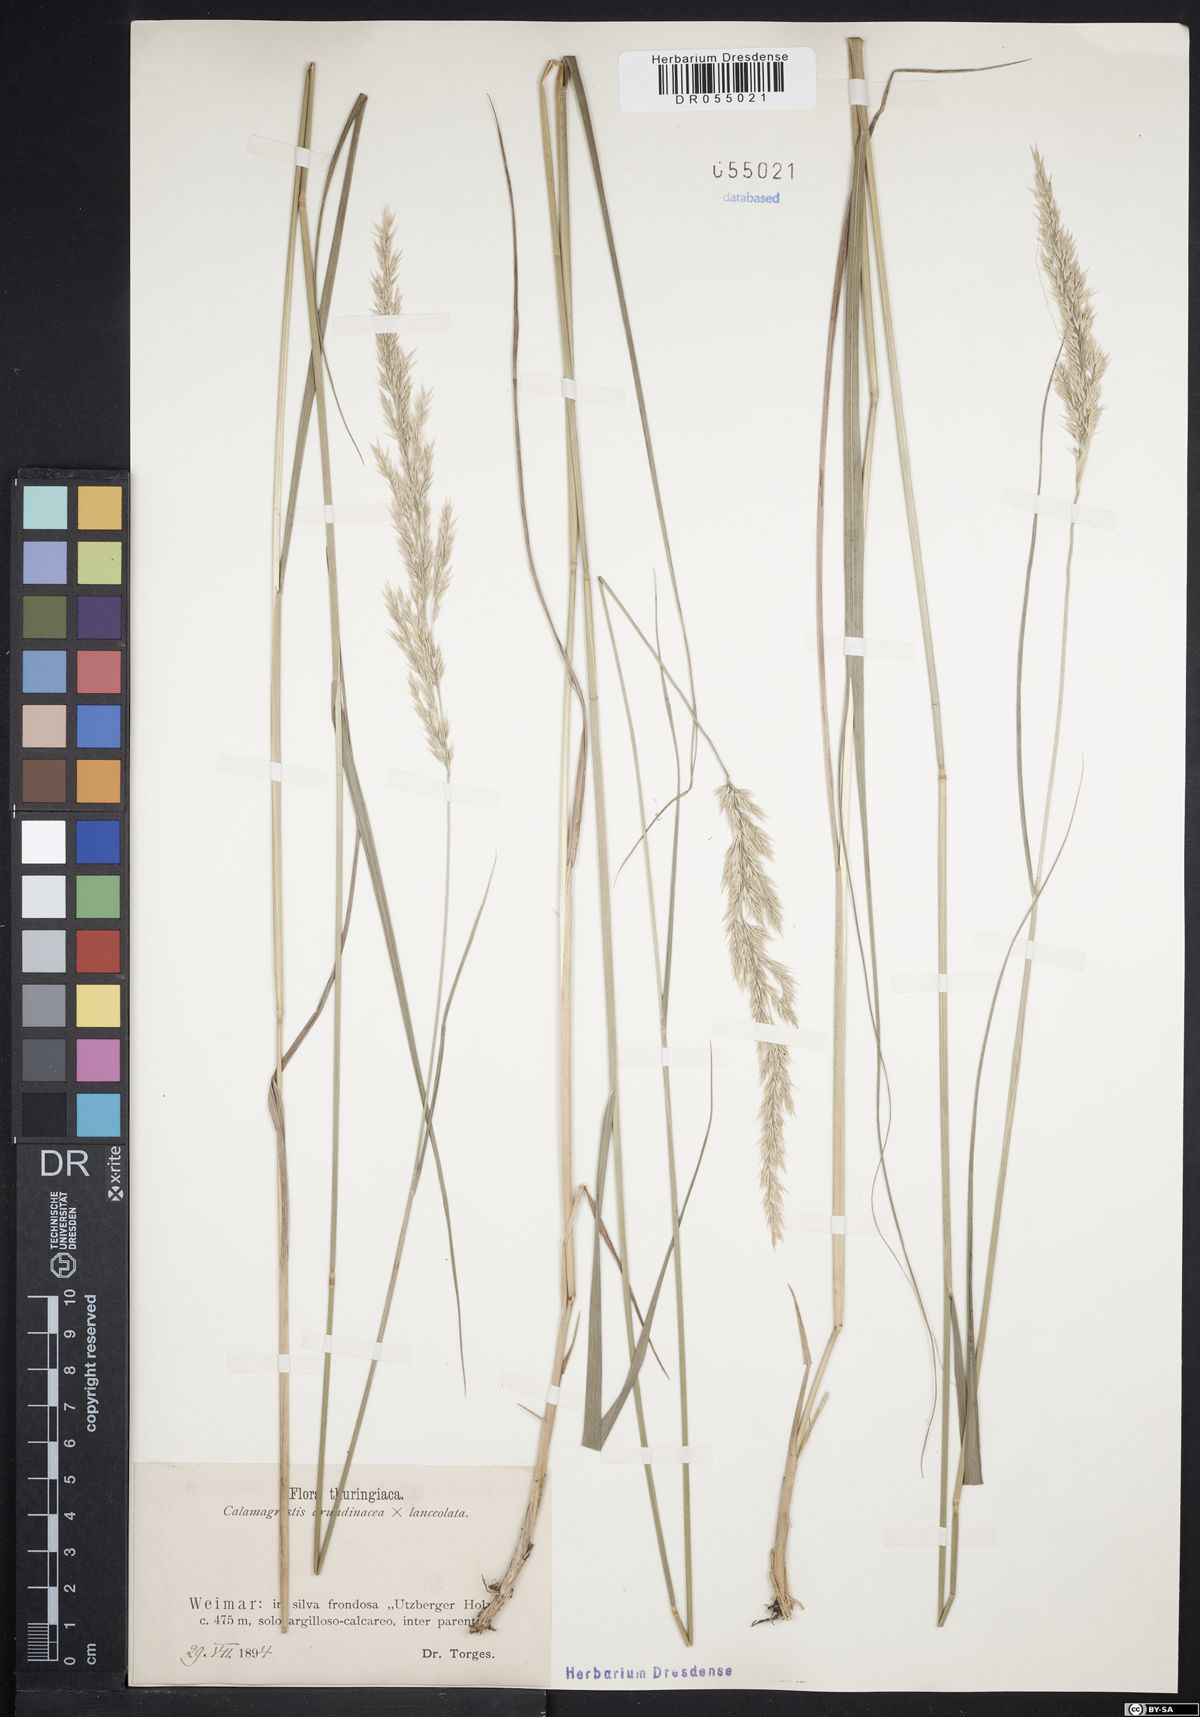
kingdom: Plantae
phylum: Tracheophyta
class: Liliopsida
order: Poales
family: Poaceae
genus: Calamagrostis
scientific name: Calamagrostis hartmaniana
